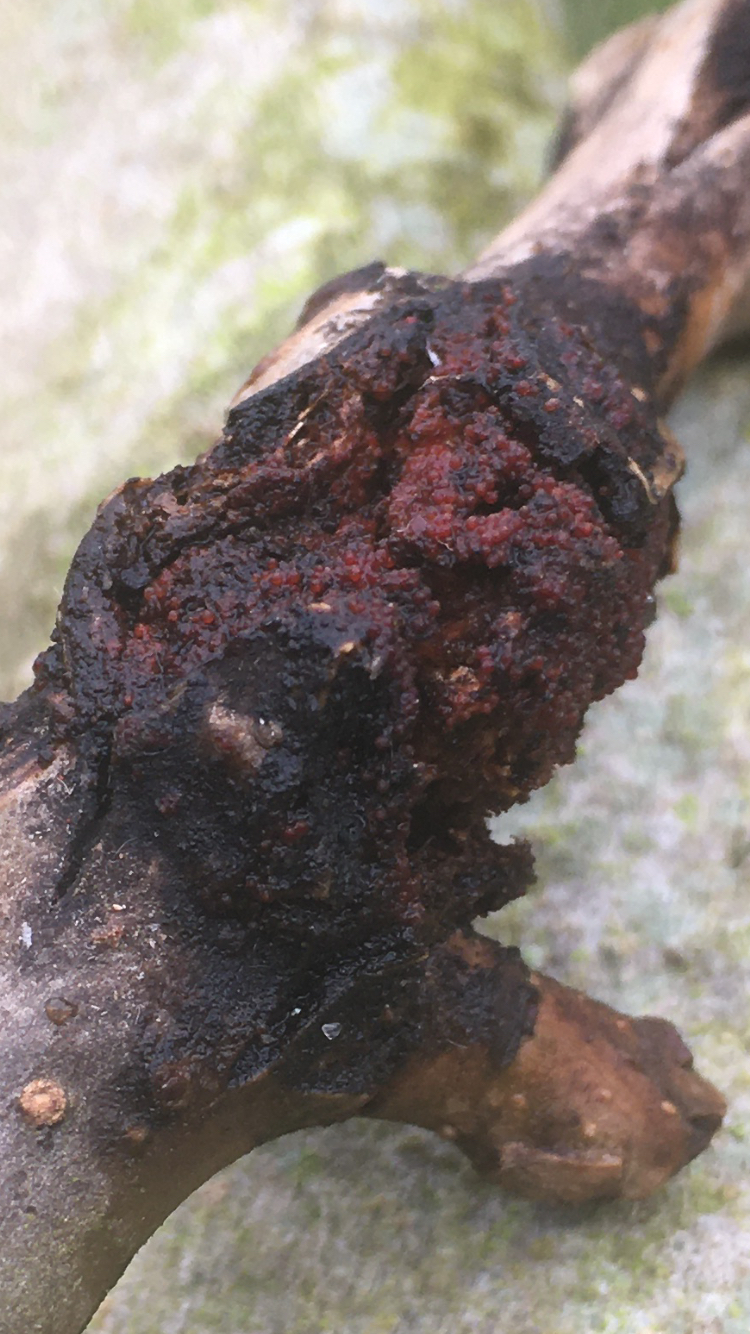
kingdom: Fungi
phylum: Ascomycota
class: Sordariomycetes
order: Hypocreales
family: Nectriaceae
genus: Neonectria
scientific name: Neonectria ditissima
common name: frugttræ-cinnobersvamp
